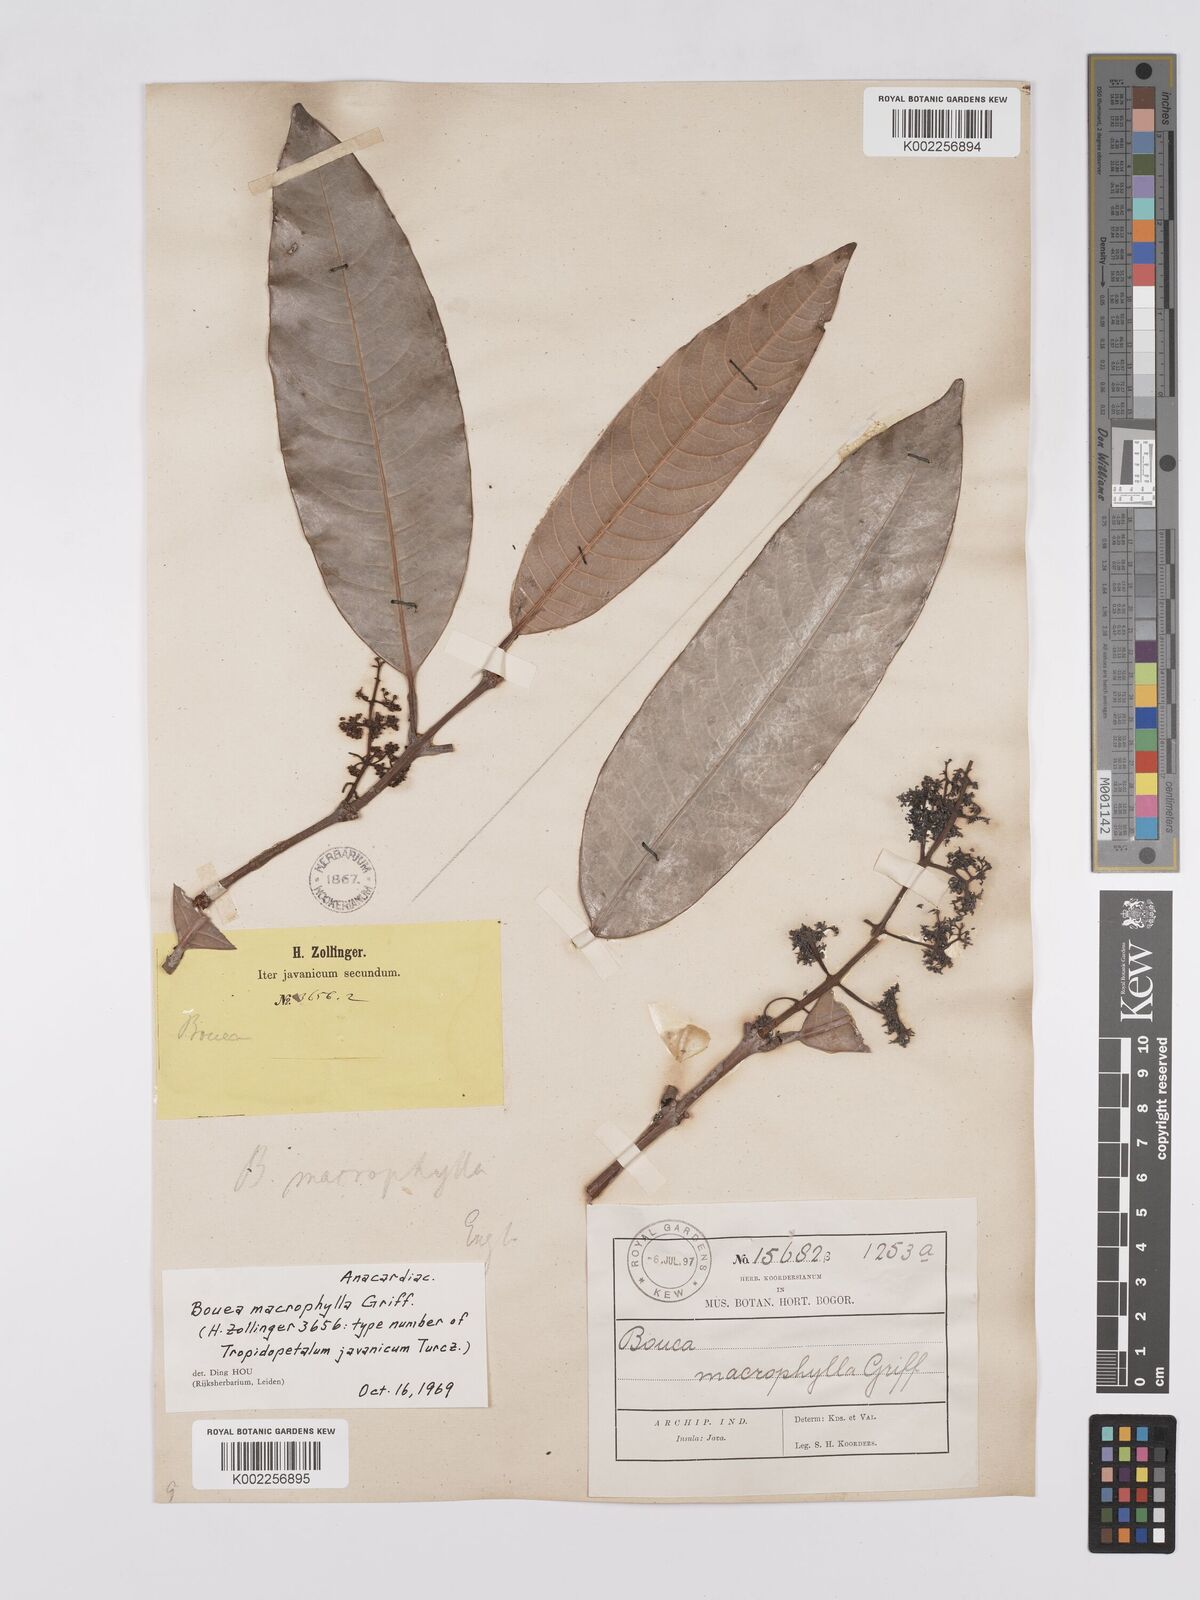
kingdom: Plantae
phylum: Tracheophyta
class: Magnoliopsida
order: Sapindales
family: Anacardiaceae
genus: Bouea
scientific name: Bouea macrophylla
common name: Gandaria
